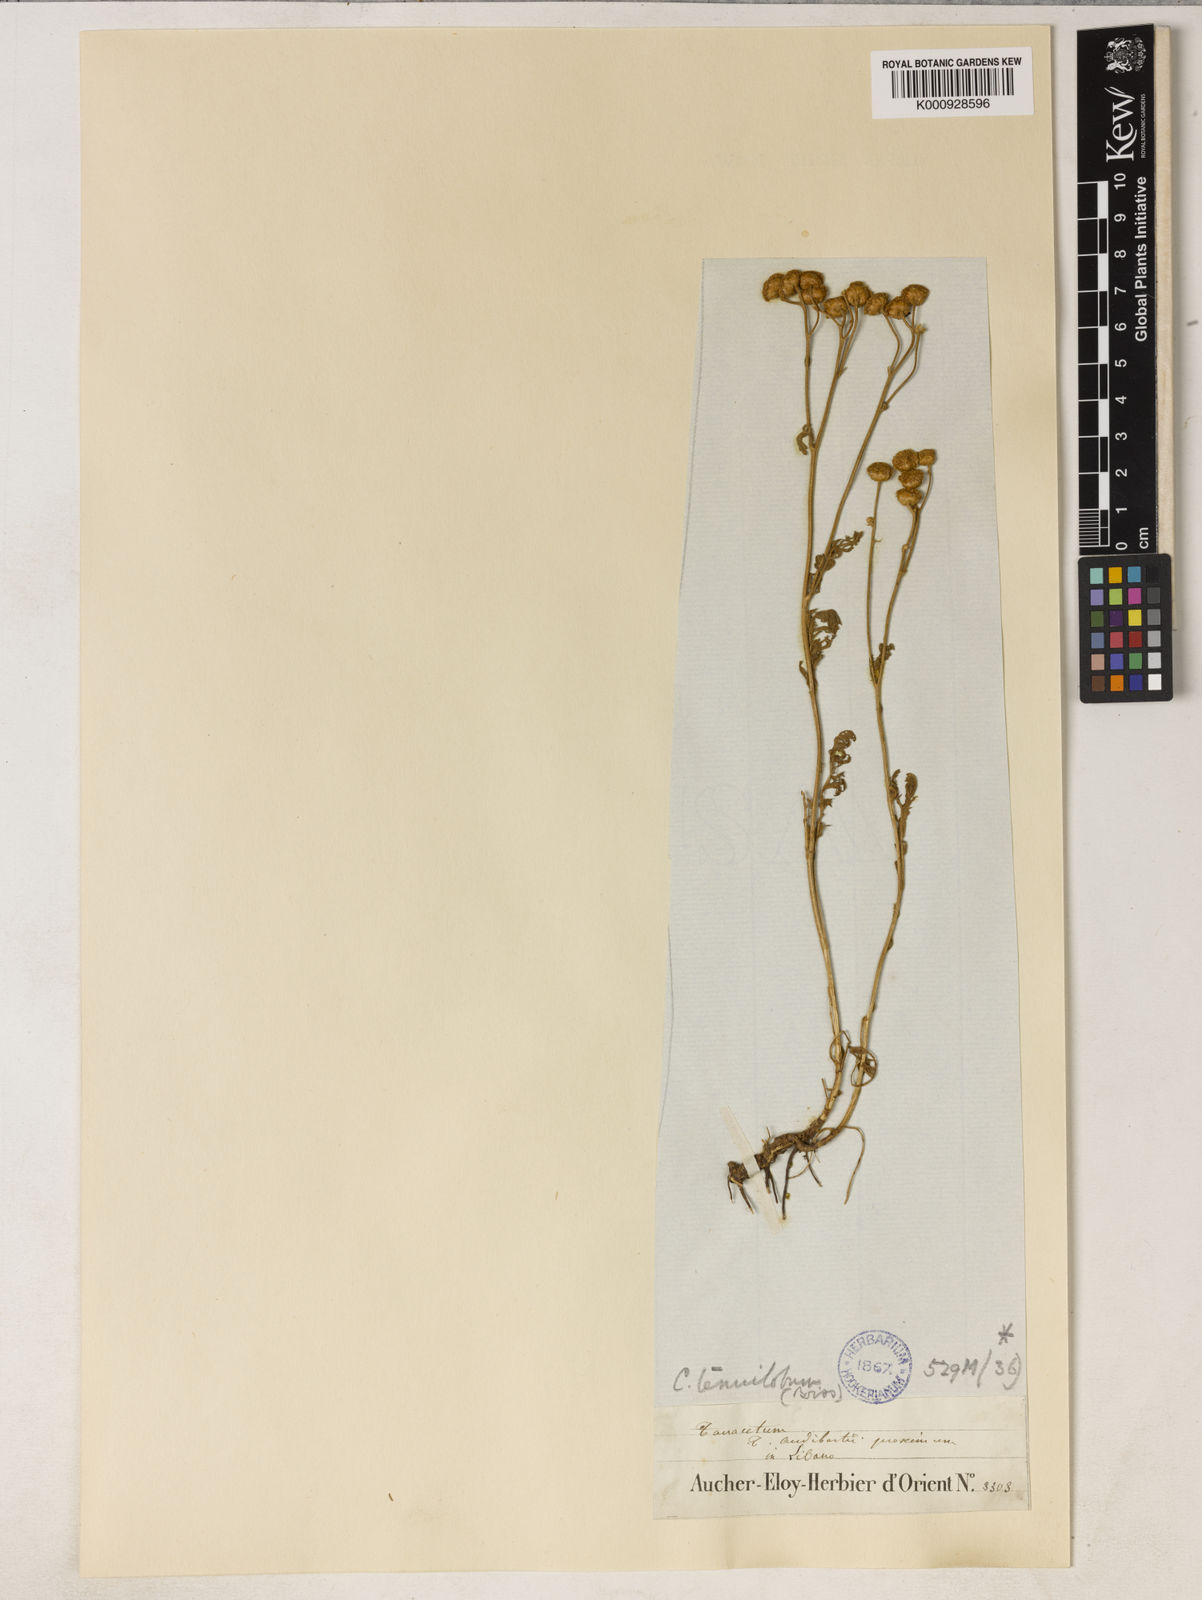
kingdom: Plantae
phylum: Tracheophyta
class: Magnoliopsida
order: Asterales
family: Asteraceae
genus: Tanacetum
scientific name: Tanacetum aucheri
